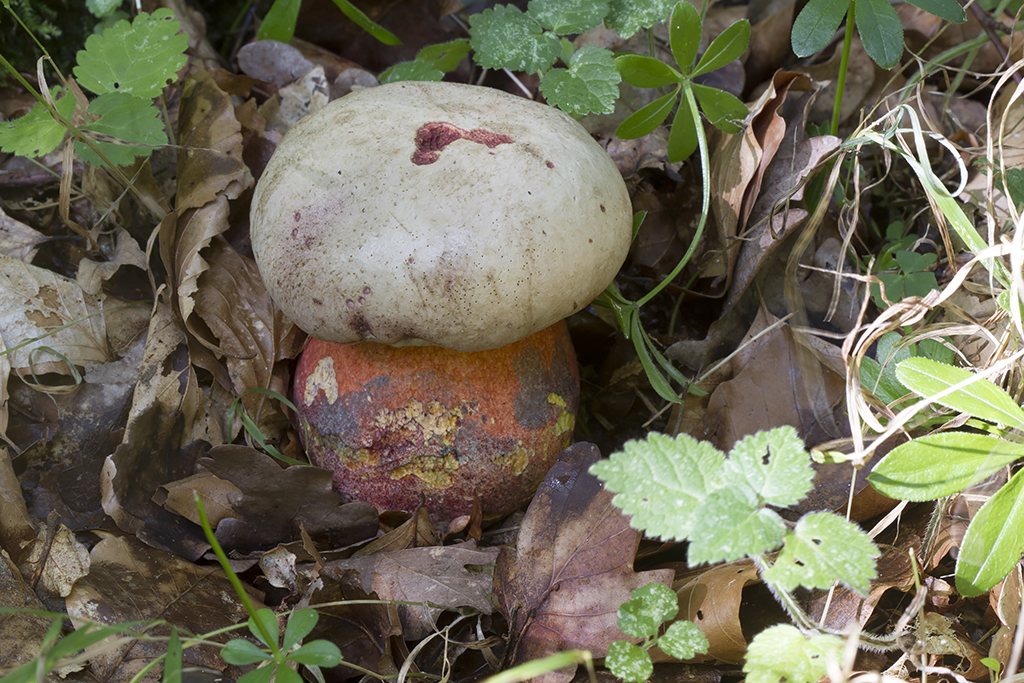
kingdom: Fungi
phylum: Basidiomycota
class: Agaricomycetes
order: Boletales
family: Boletaceae
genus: Rubroboletus
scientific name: Rubroboletus legaliae
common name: djævle-rørhat
